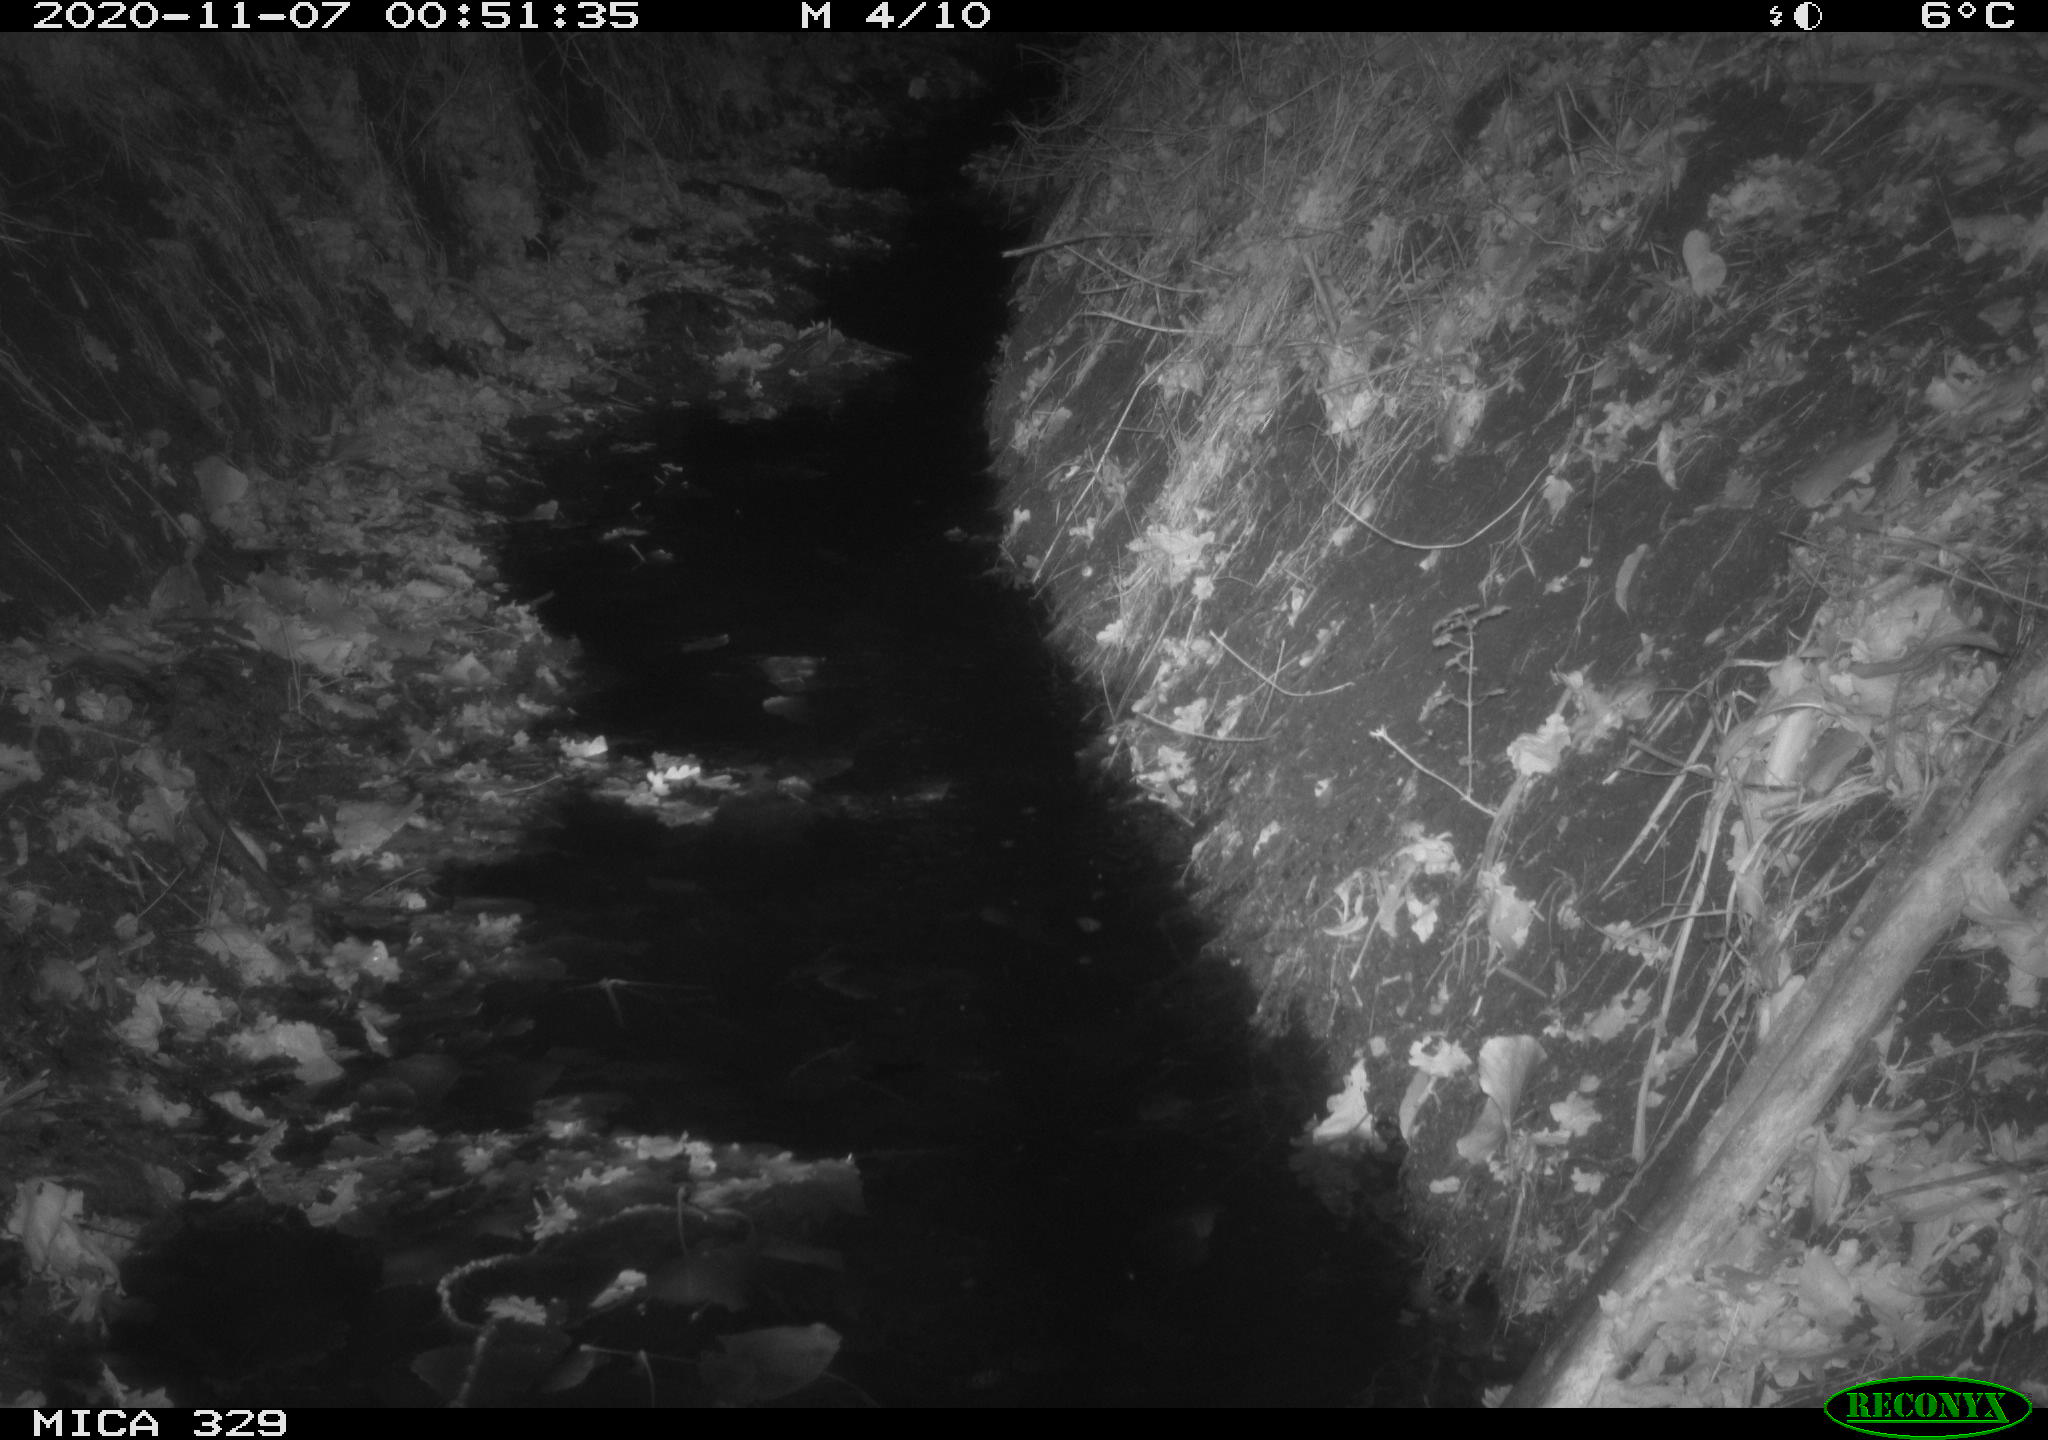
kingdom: Animalia
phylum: Chordata
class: Mammalia
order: Rodentia
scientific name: Rodentia
